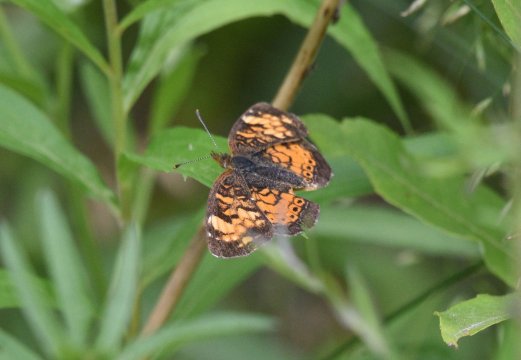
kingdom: Animalia
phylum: Arthropoda
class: Insecta
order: Lepidoptera
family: Nymphalidae
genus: Phyciodes
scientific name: Phyciodes tharos
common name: Northern Crescent
